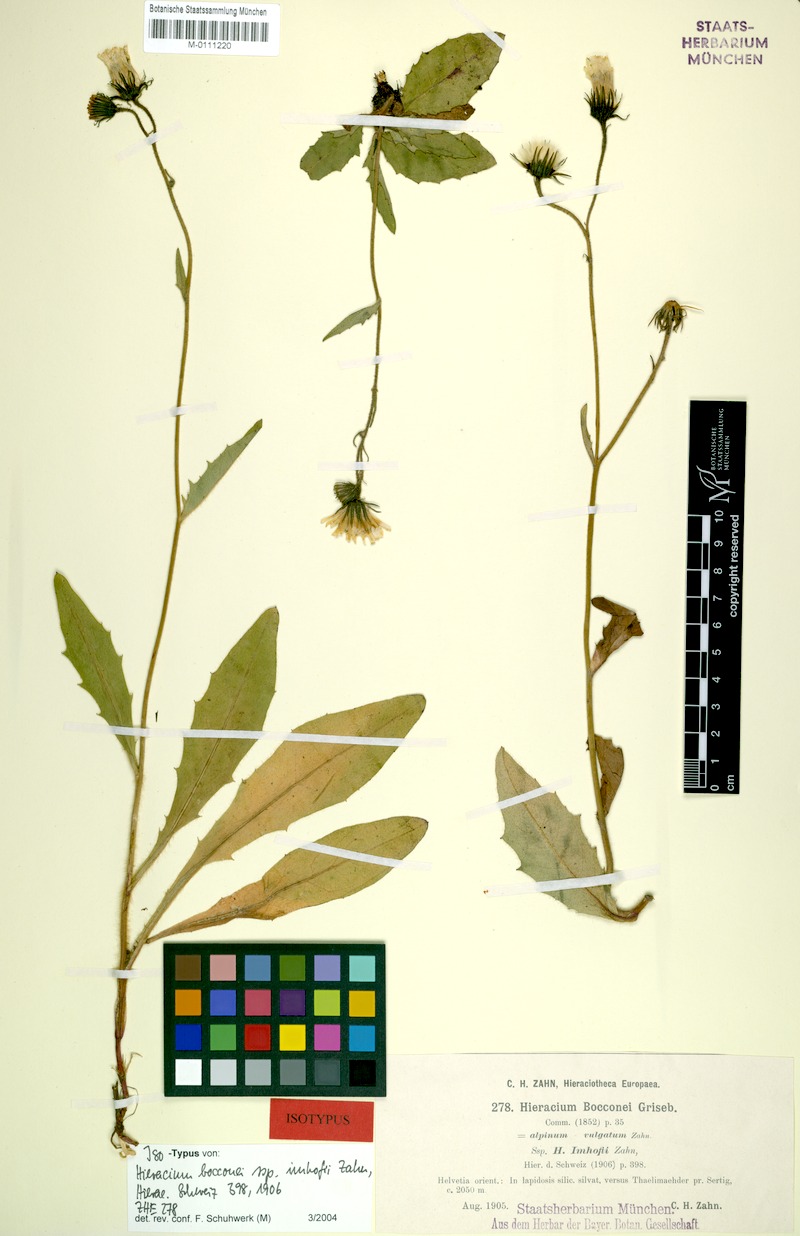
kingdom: Plantae
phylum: Tracheophyta
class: Magnoliopsida
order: Asterales
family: Asteraceae
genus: Hieracium
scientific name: Hieracium bocconei
